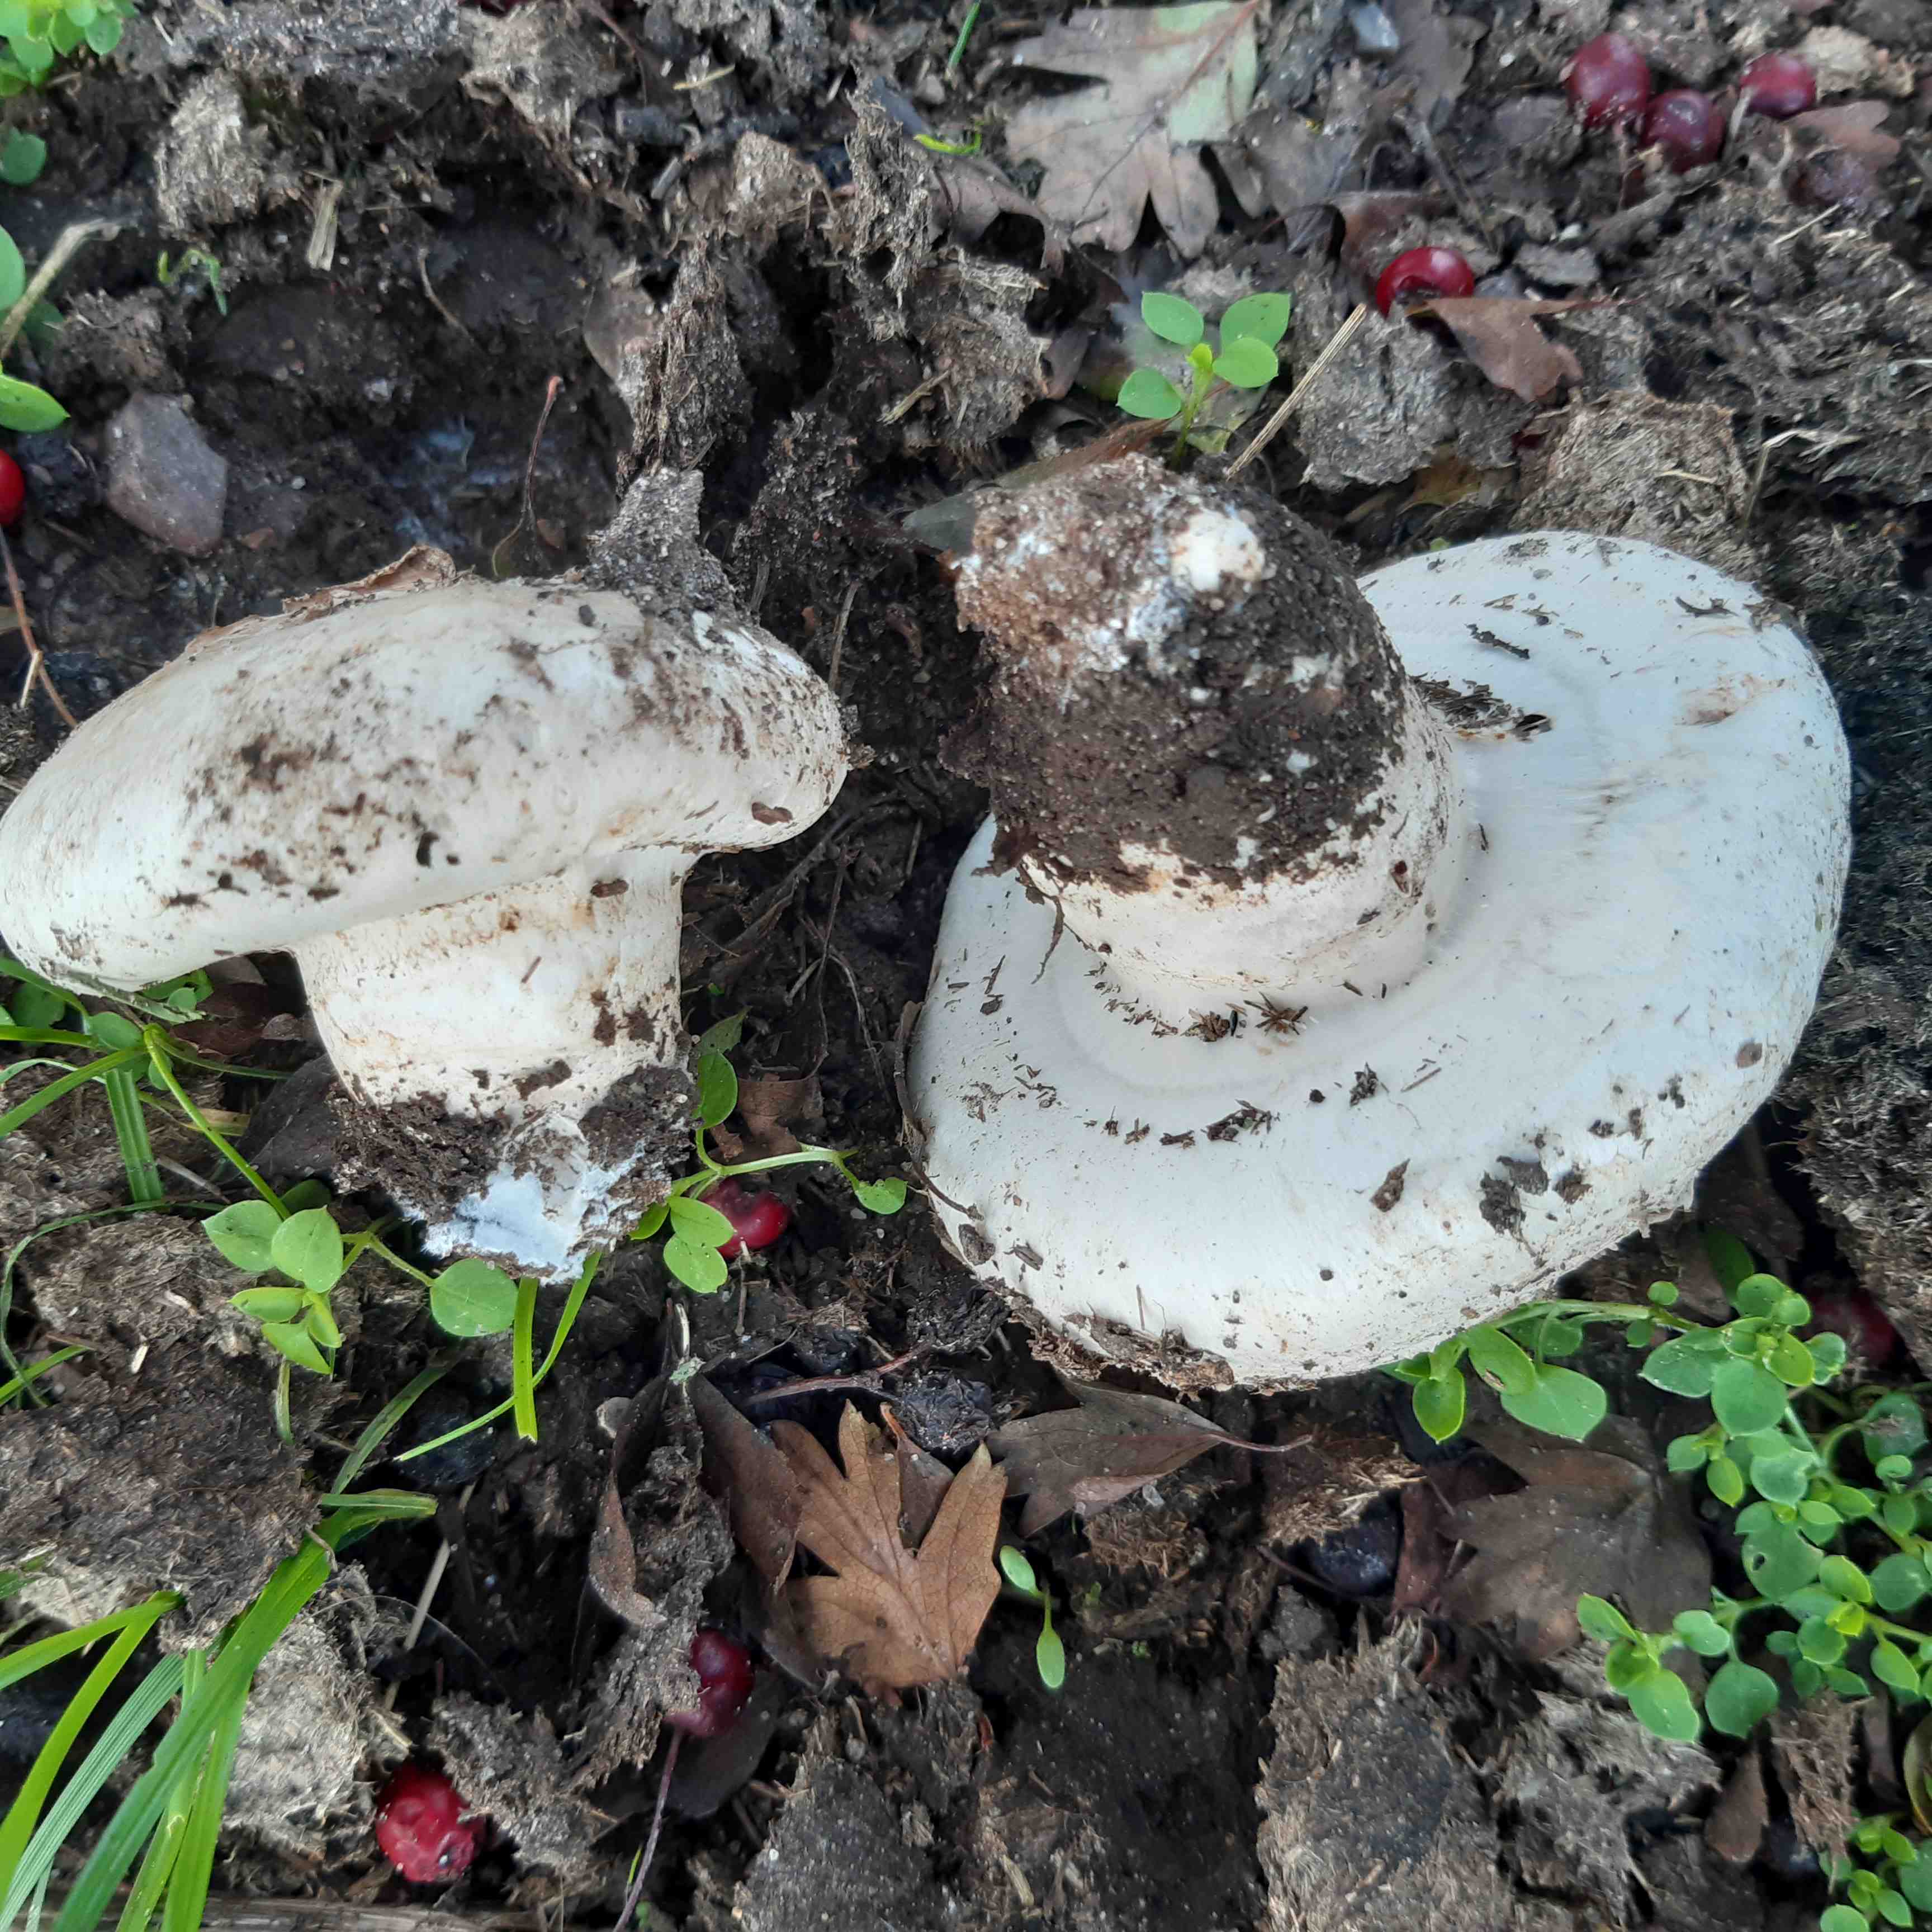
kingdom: Fungi
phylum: Basidiomycota
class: Agaricomycetes
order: Agaricales
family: Agaricaceae
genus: Agaricus
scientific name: Agaricus bernardii
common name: strandengs-champignon
